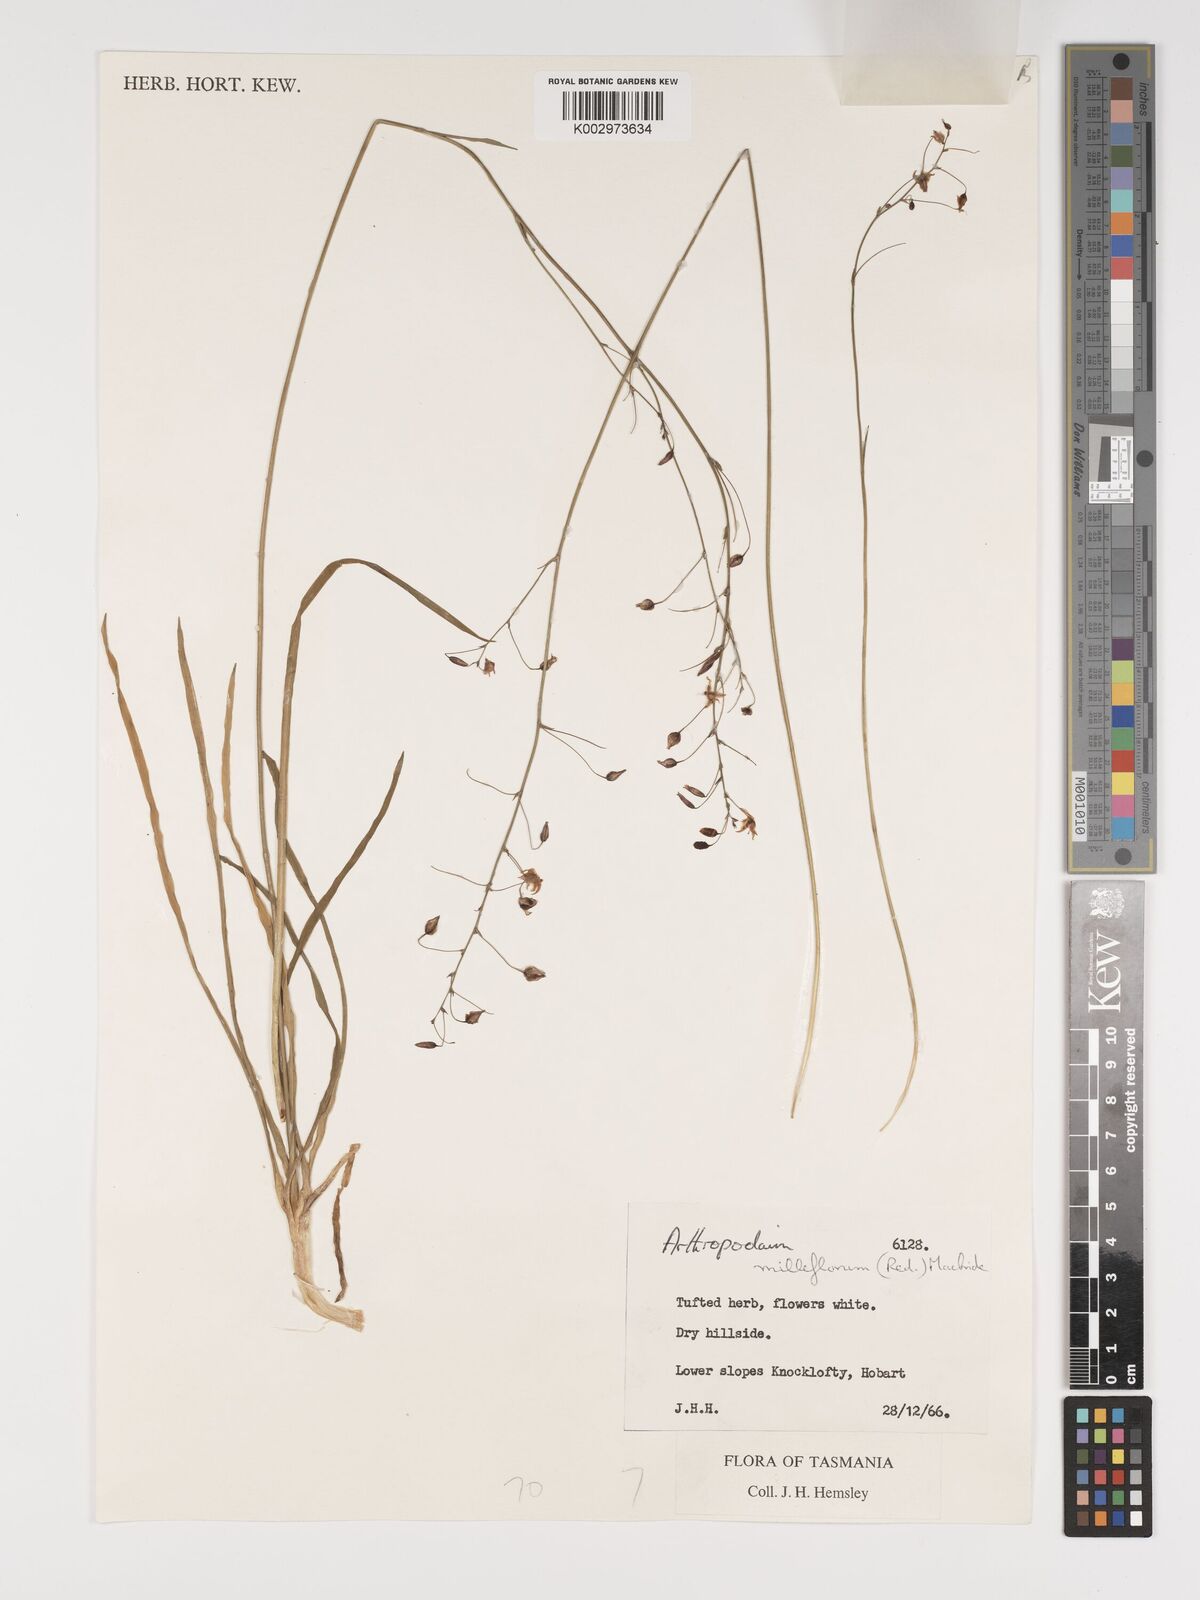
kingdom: Plantae
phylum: Tracheophyta
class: Liliopsida
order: Asparagales
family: Asparagaceae
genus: Arthropodium
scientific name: Arthropodium milleflorum
